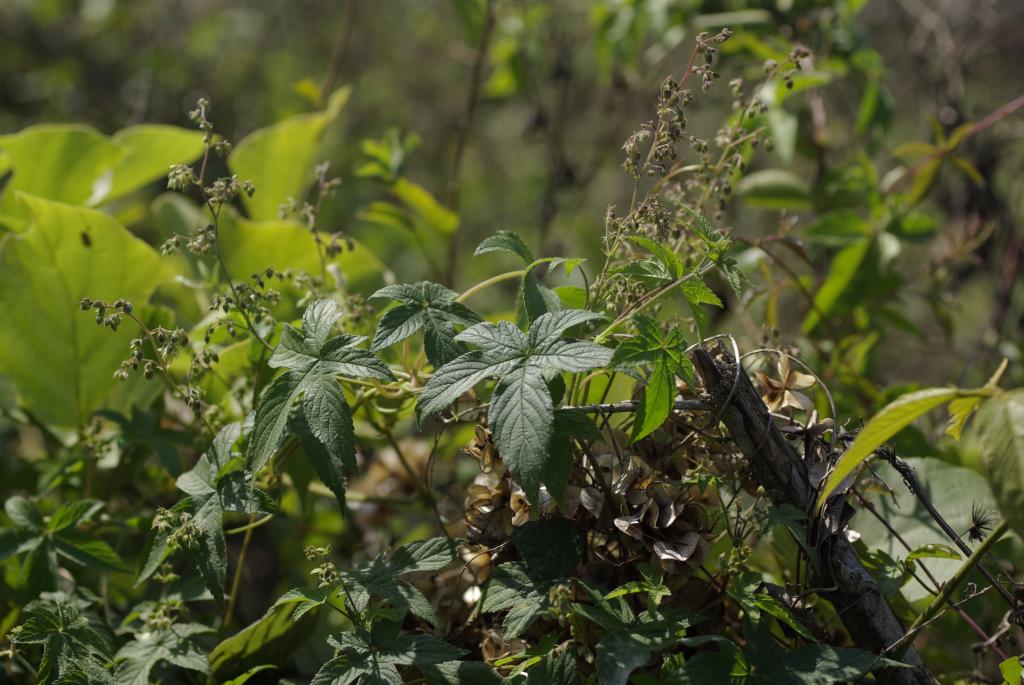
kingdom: Plantae
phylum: Tracheophyta
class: Magnoliopsida
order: Rosales
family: Cannabaceae
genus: Humulus
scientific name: Humulus scandens
